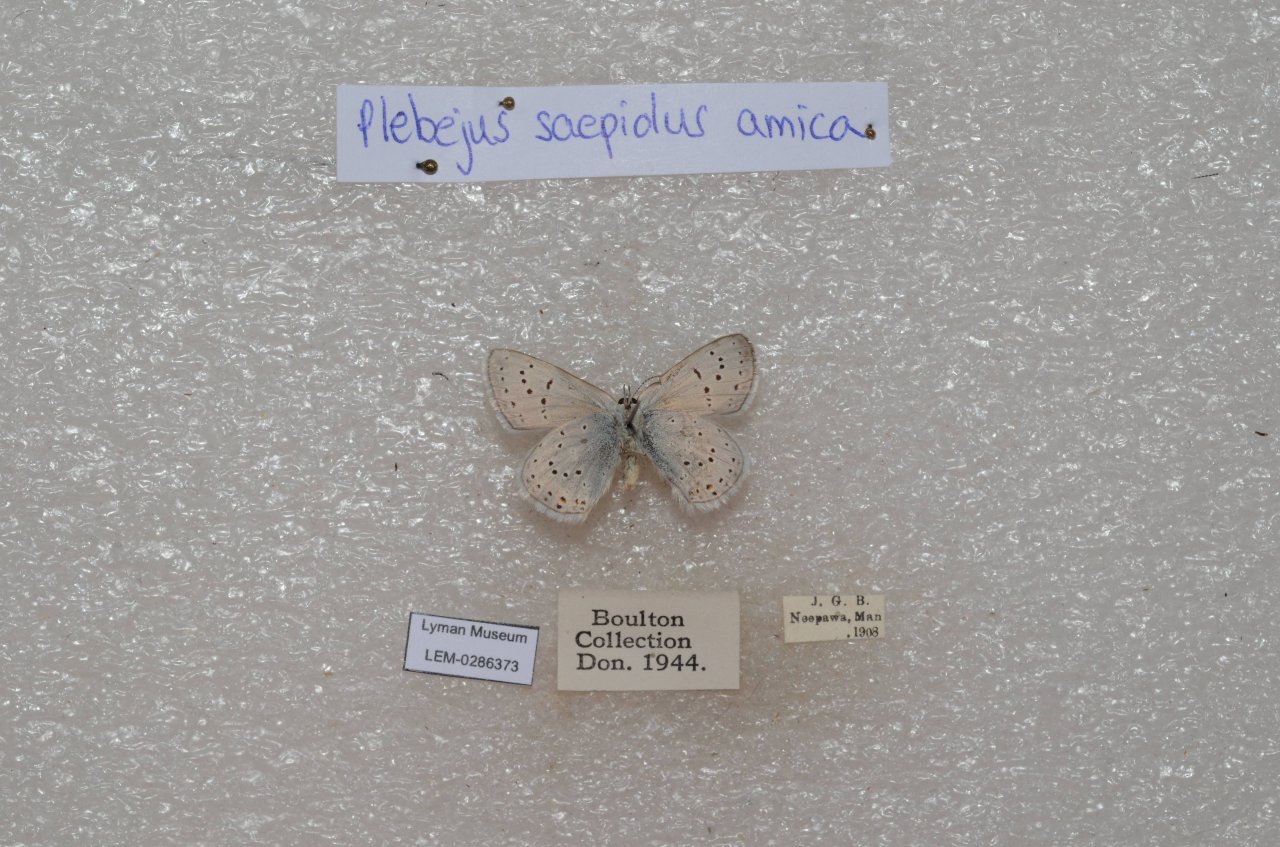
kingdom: Animalia
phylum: Arthropoda
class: Insecta
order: Lepidoptera
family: Lycaenidae
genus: Plebejus
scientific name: Plebejus saepiolus
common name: Greenish Blue
